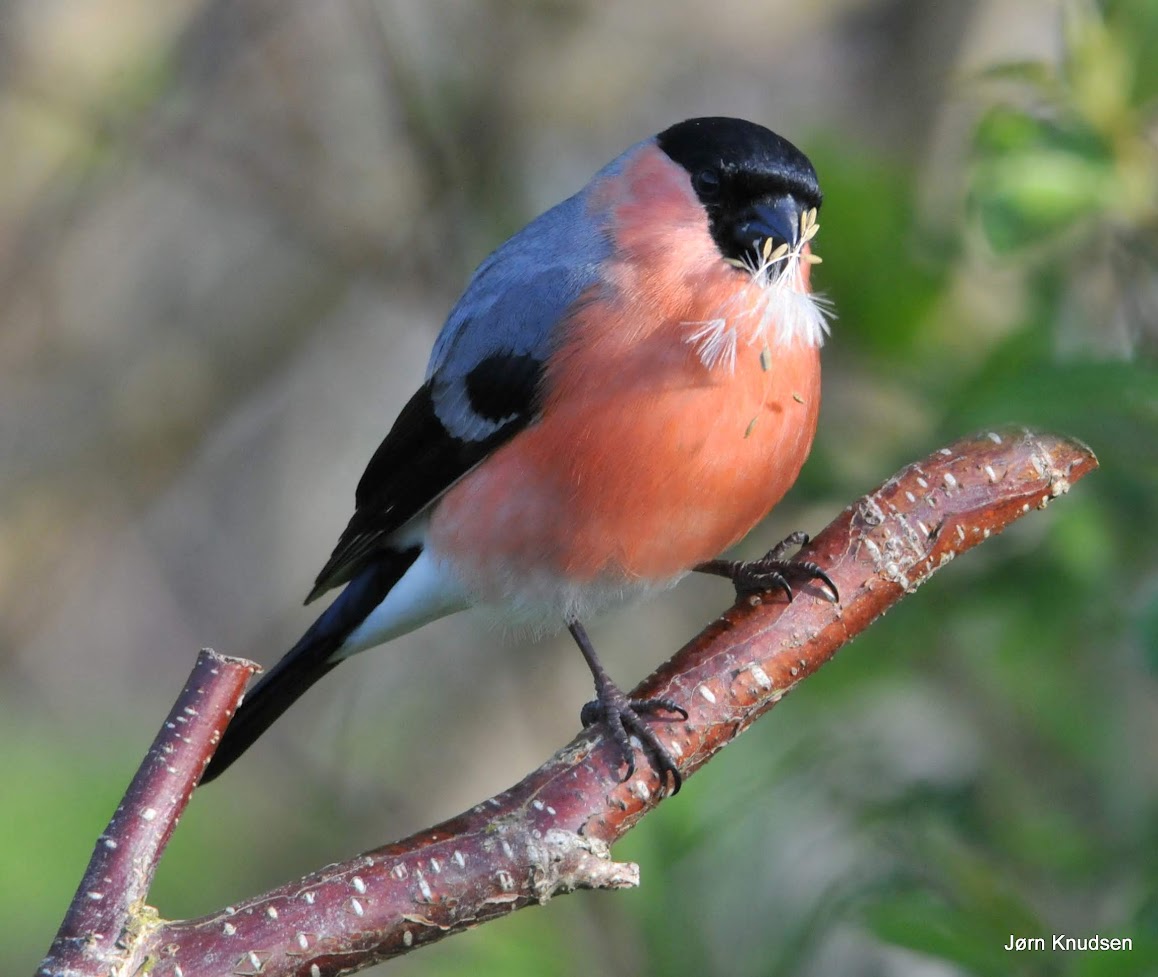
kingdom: Animalia
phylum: Chordata
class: Aves
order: Passeriformes
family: Fringillidae
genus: Pyrrhula
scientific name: Pyrrhula pyrrhula
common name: Dompap
